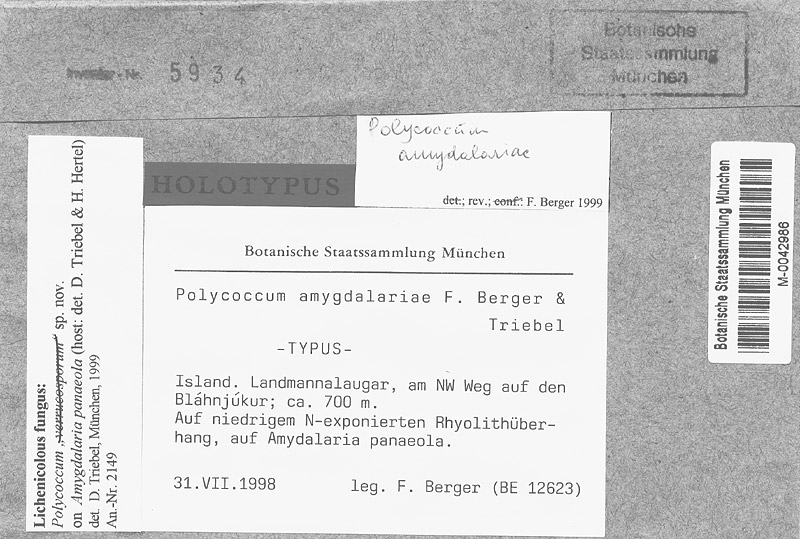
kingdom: Fungi
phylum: Ascomycota
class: Lecanoromycetes
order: Lecideales
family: Lecideaceae
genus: Amygdalaria
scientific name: Amygdalaria panaeola
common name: Powdery almond lichen
